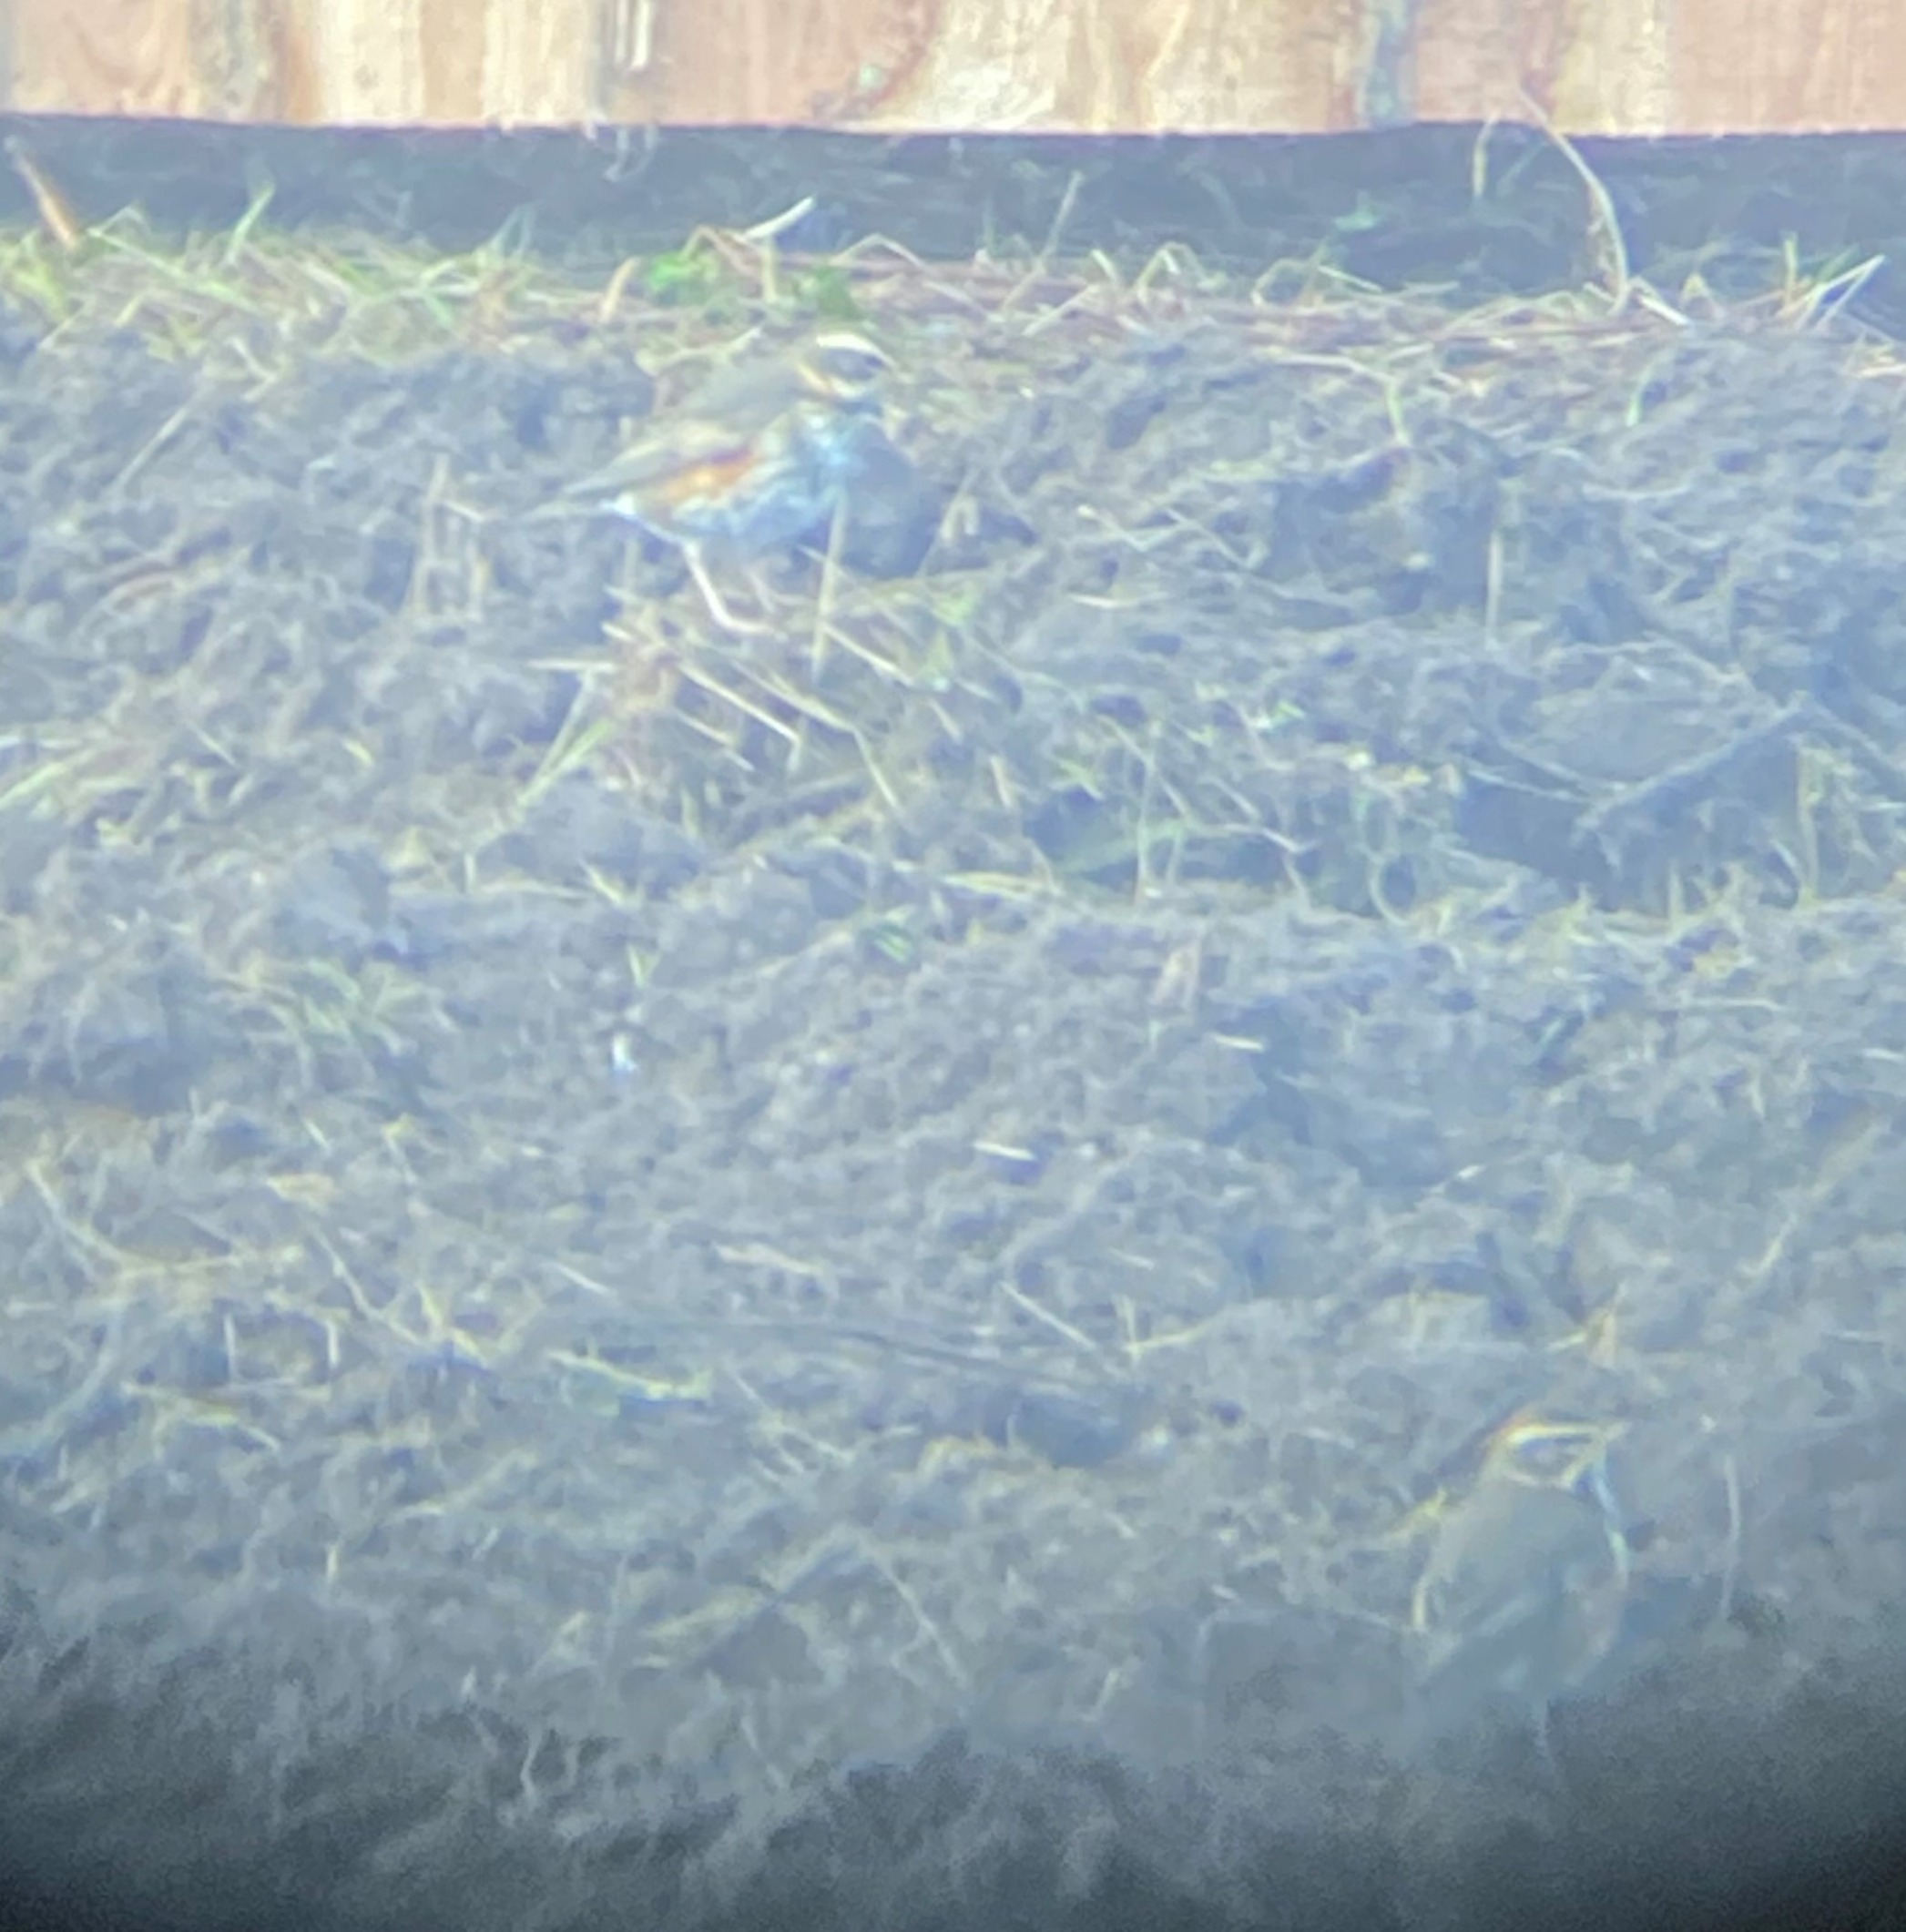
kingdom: Animalia
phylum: Chordata
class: Aves
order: Passeriformes
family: Turdidae
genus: Turdus
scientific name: Turdus iliacus
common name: Vindrossel
